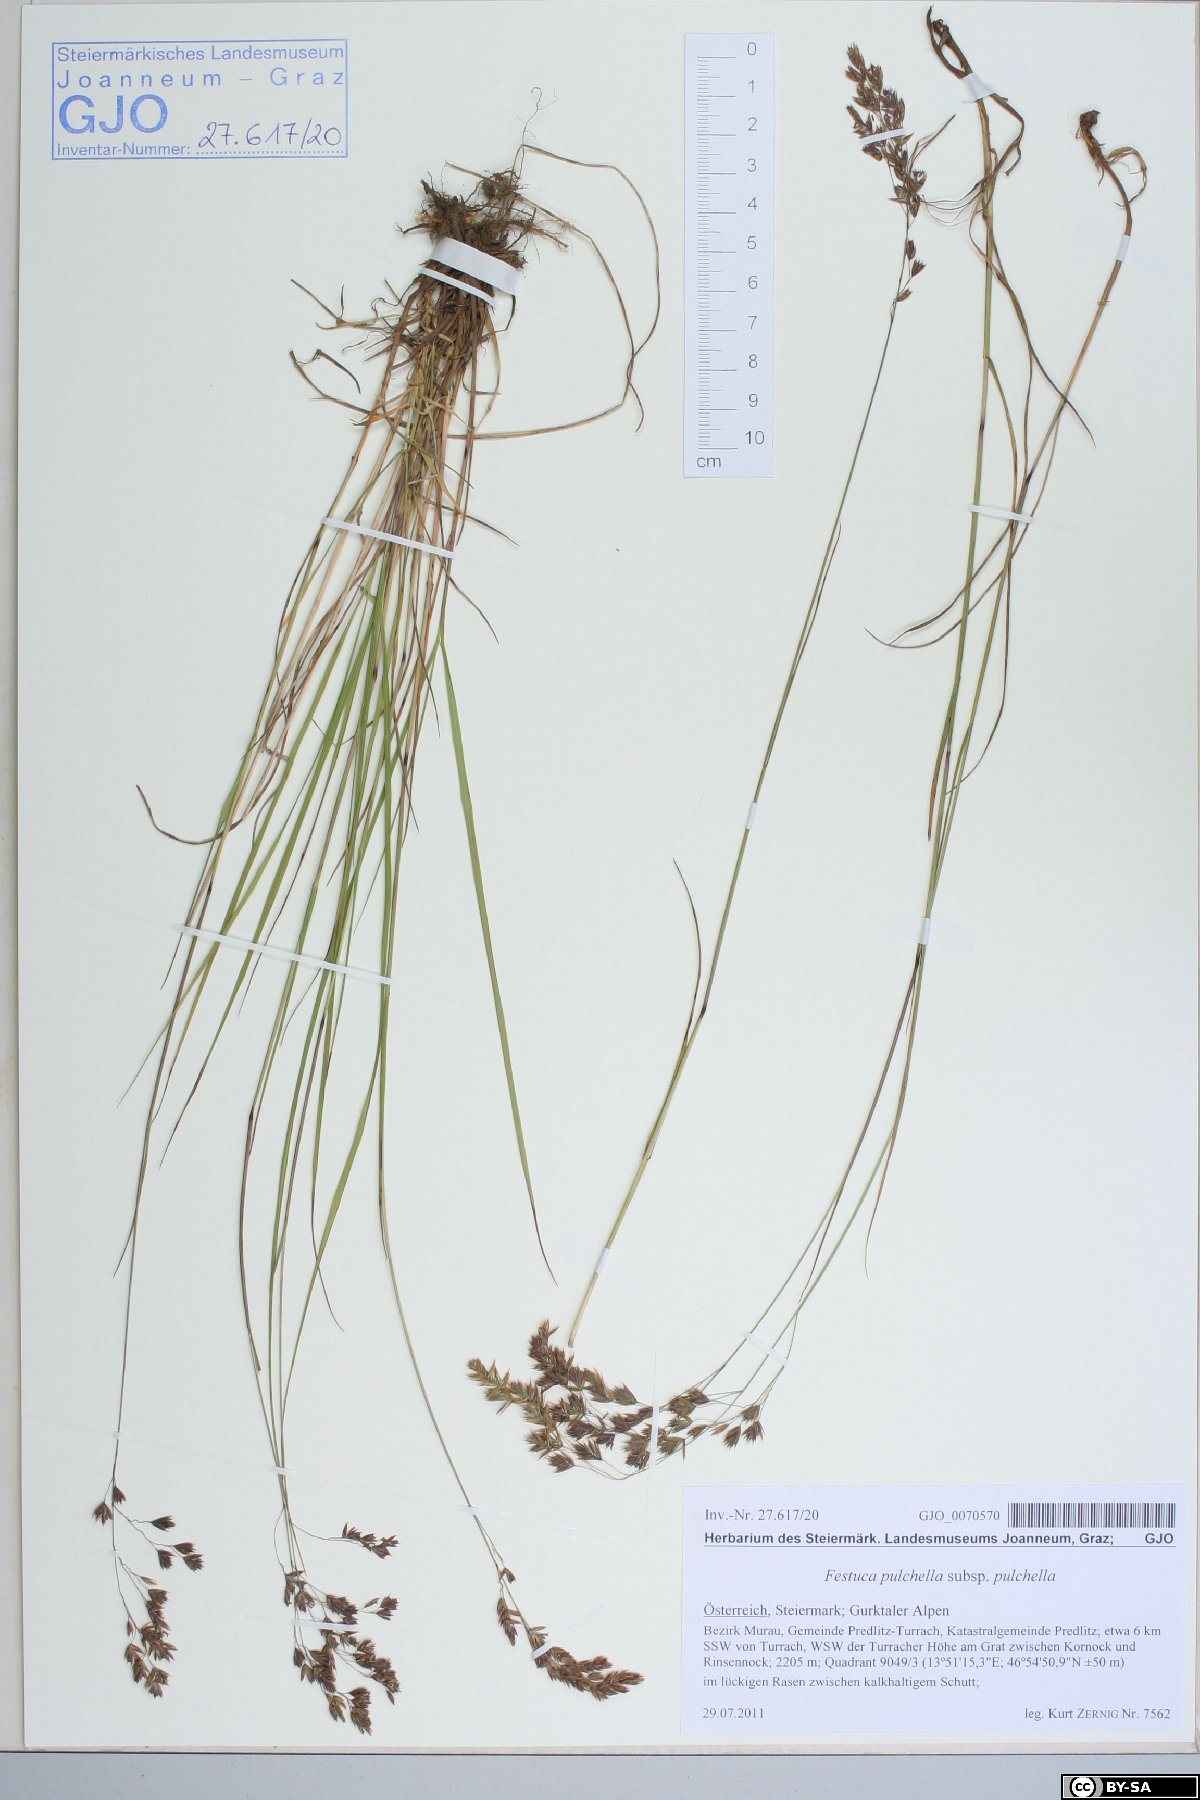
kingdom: Plantae
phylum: Tracheophyta
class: Liliopsida
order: Poales
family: Poaceae
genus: Festuca
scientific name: Festuca pulchella
